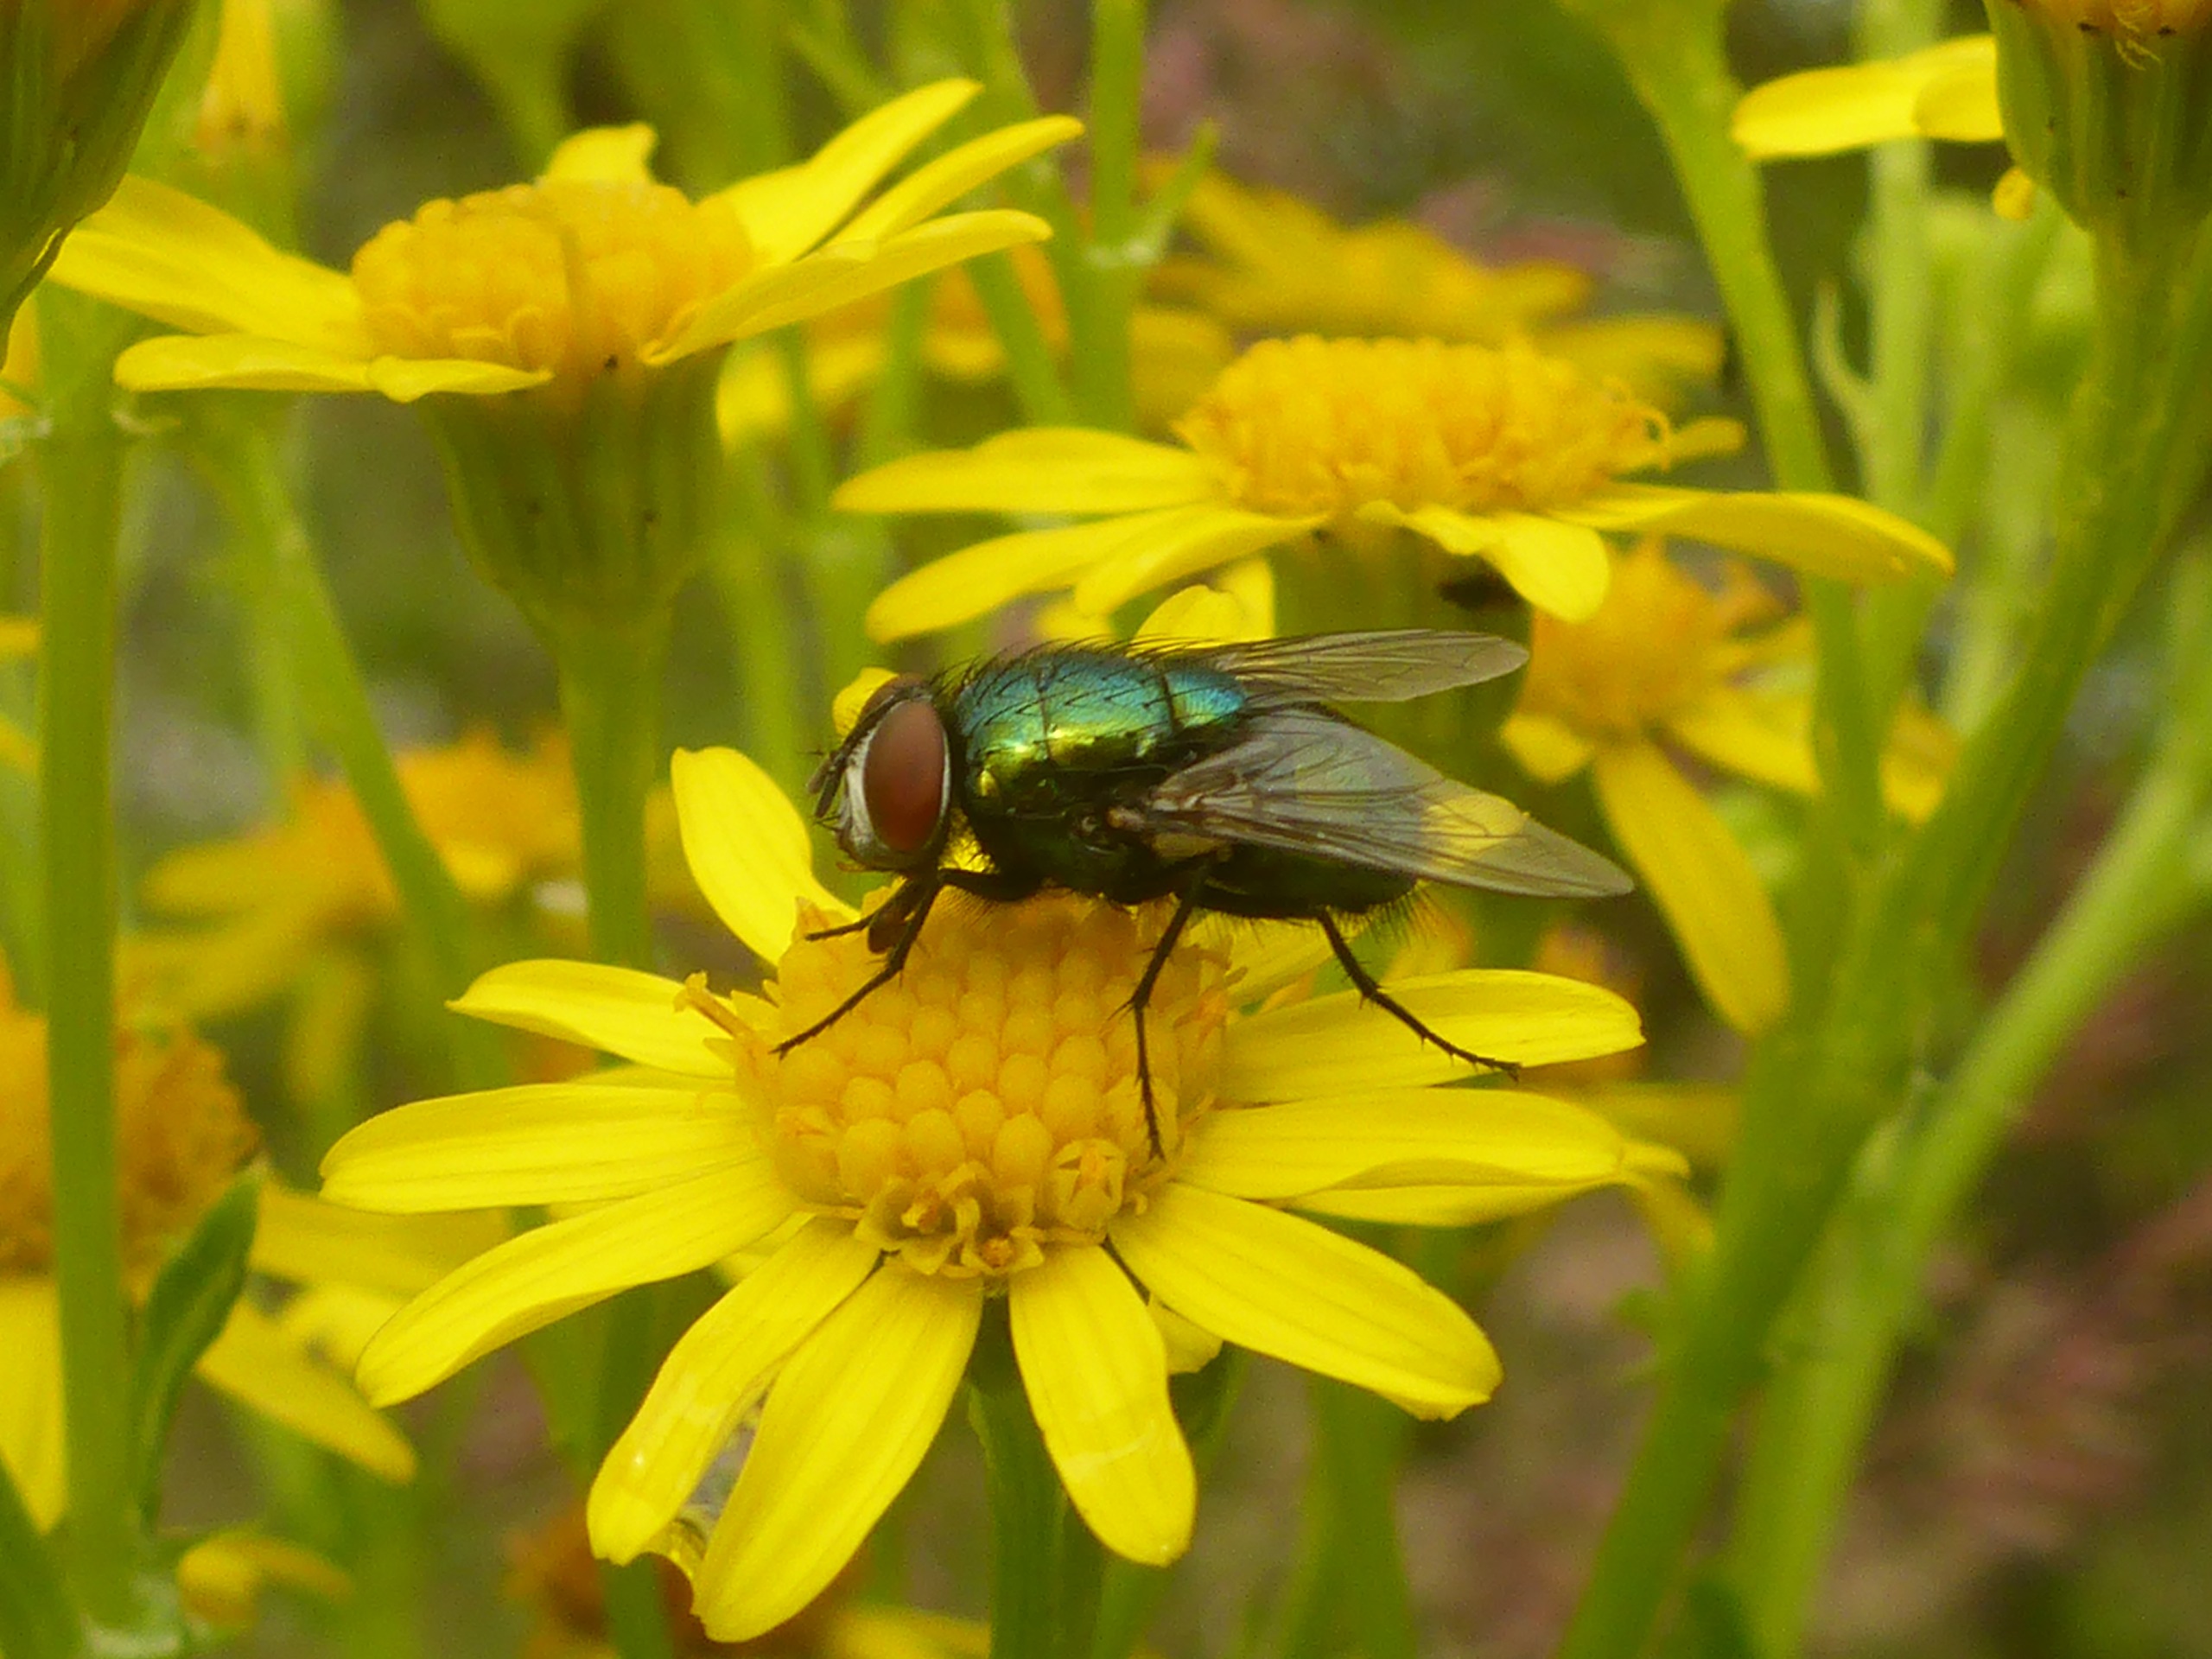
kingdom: Animalia
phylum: Arthropoda
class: Insecta
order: Diptera
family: Calliphoridae
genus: Lucilia
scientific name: Lucilia sericata
